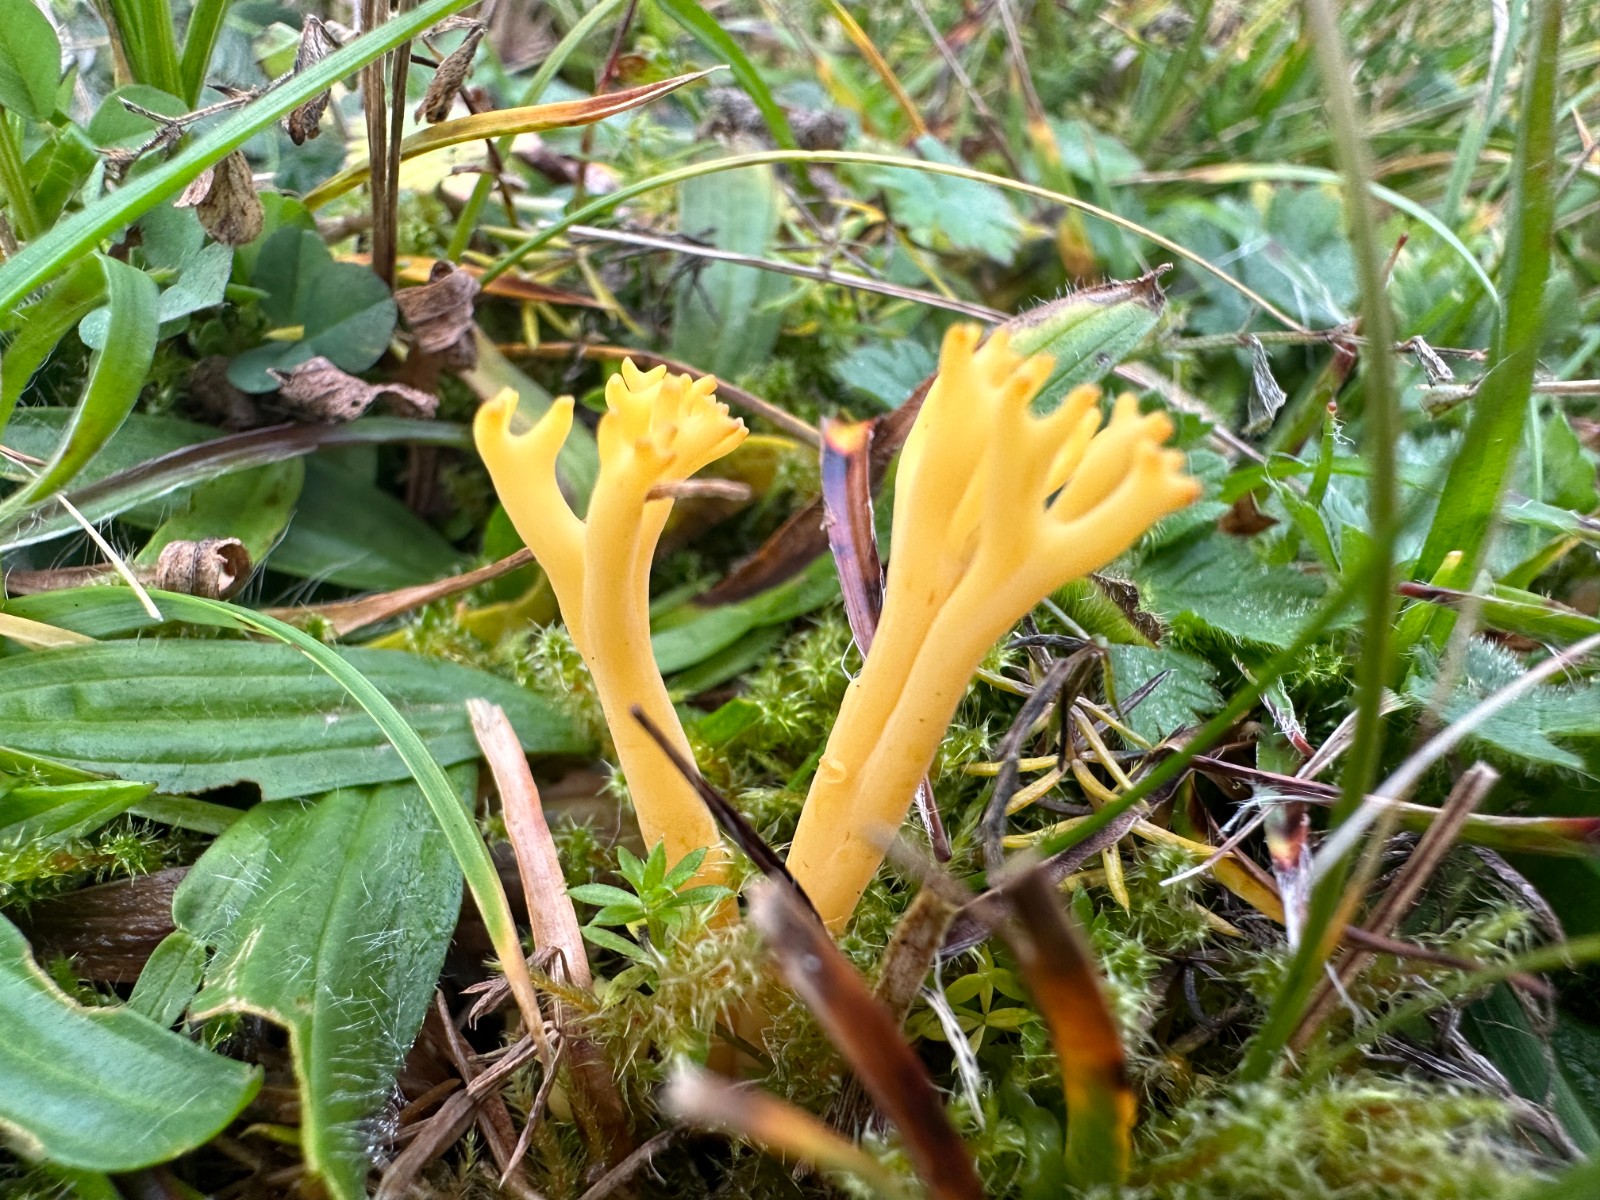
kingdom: Fungi
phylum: Basidiomycota
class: Agaricomycetes
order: Agaricales
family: Clavariaceae
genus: Clavulinopsis
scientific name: Clavulinopsis corniculata
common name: eng-køllesvamp
